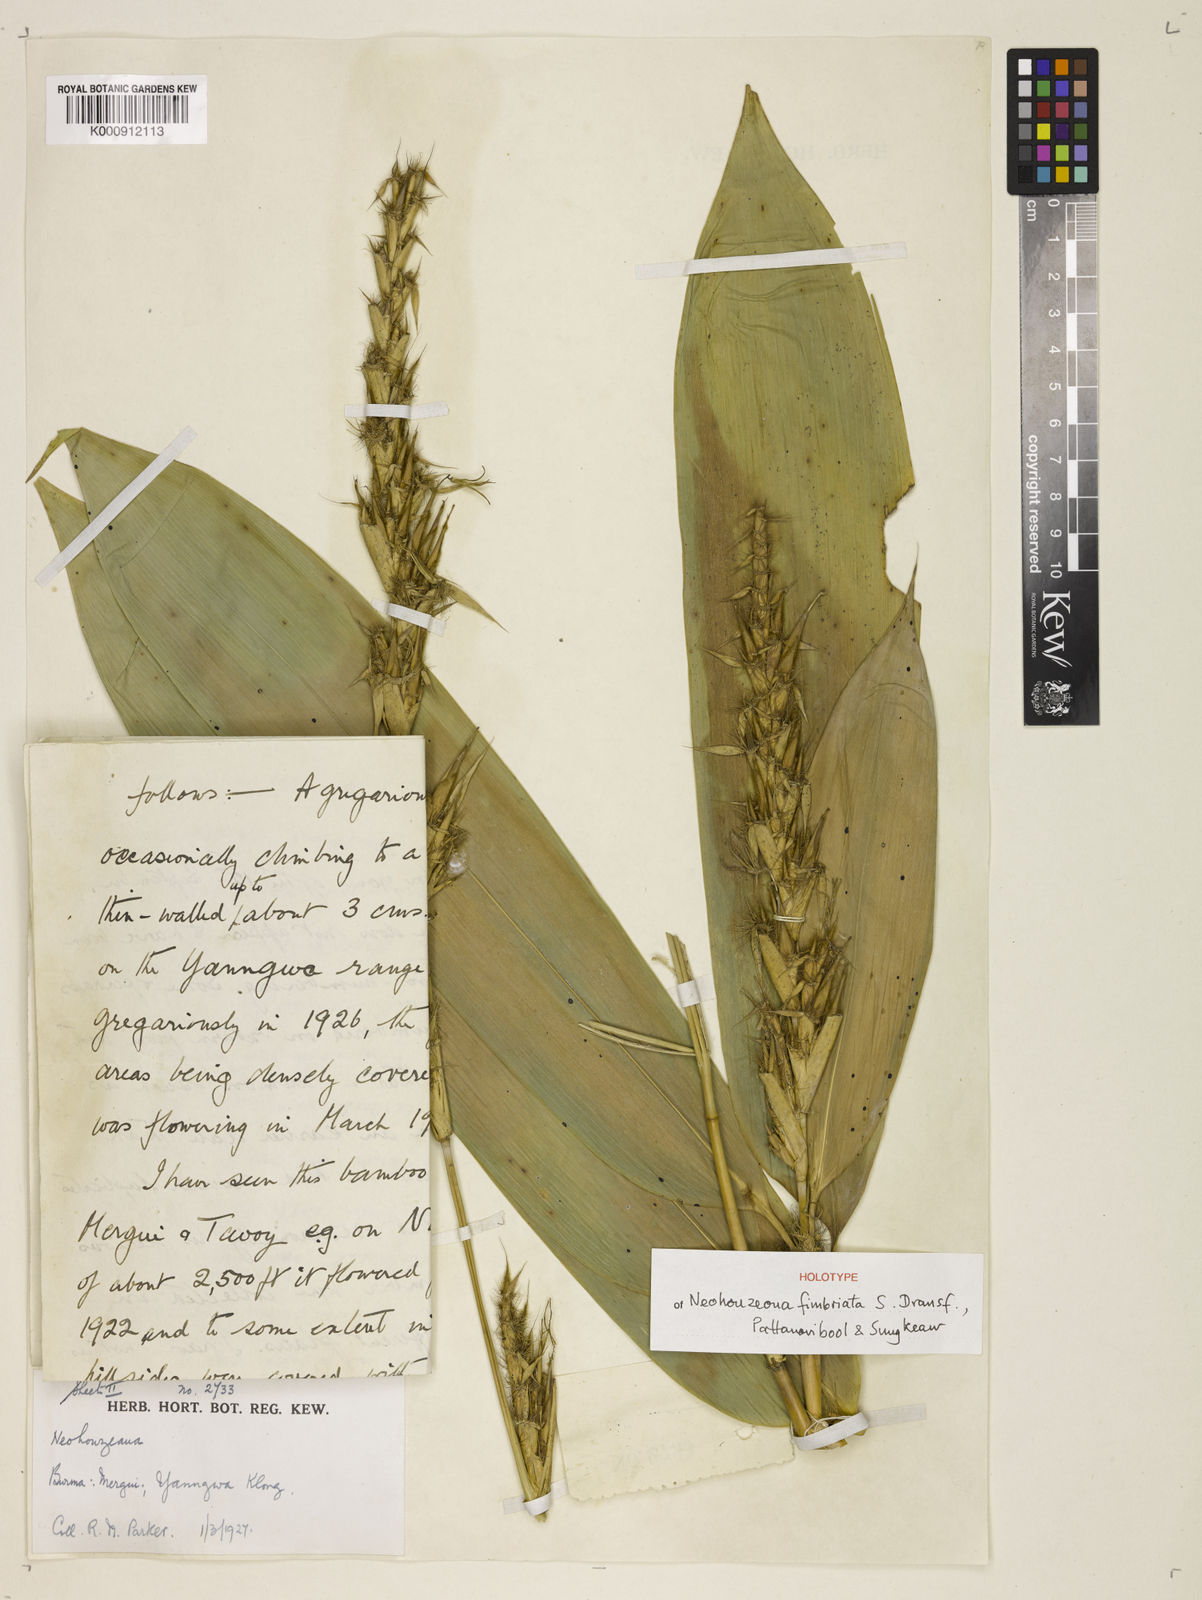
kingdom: Plantae
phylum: Tracheophyta
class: Liliopsida
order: Poales
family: Poaceae
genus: Schizostachyum
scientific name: Schizostachyum
